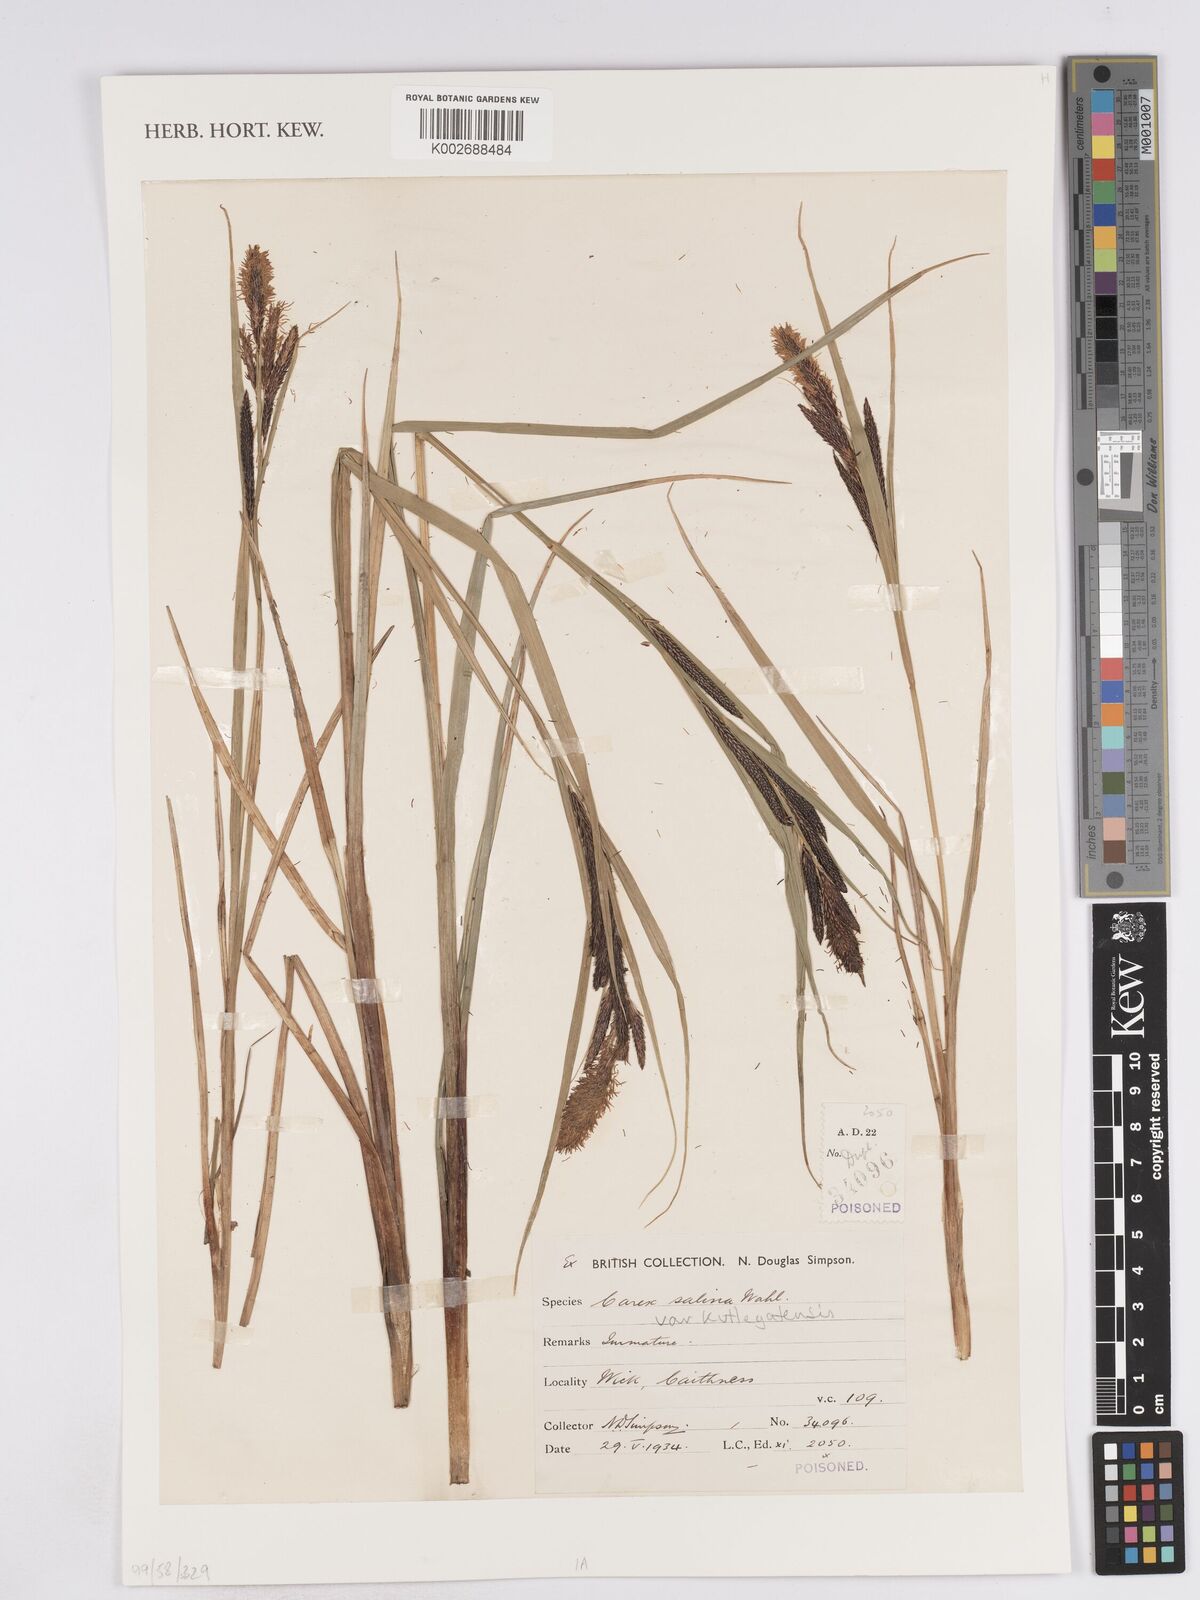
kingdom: Plantae
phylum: Tracheophyta
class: Liliopsida
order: Poales
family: Cyperaceae
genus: Carex
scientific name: Carex recta
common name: Estuarine sedge
